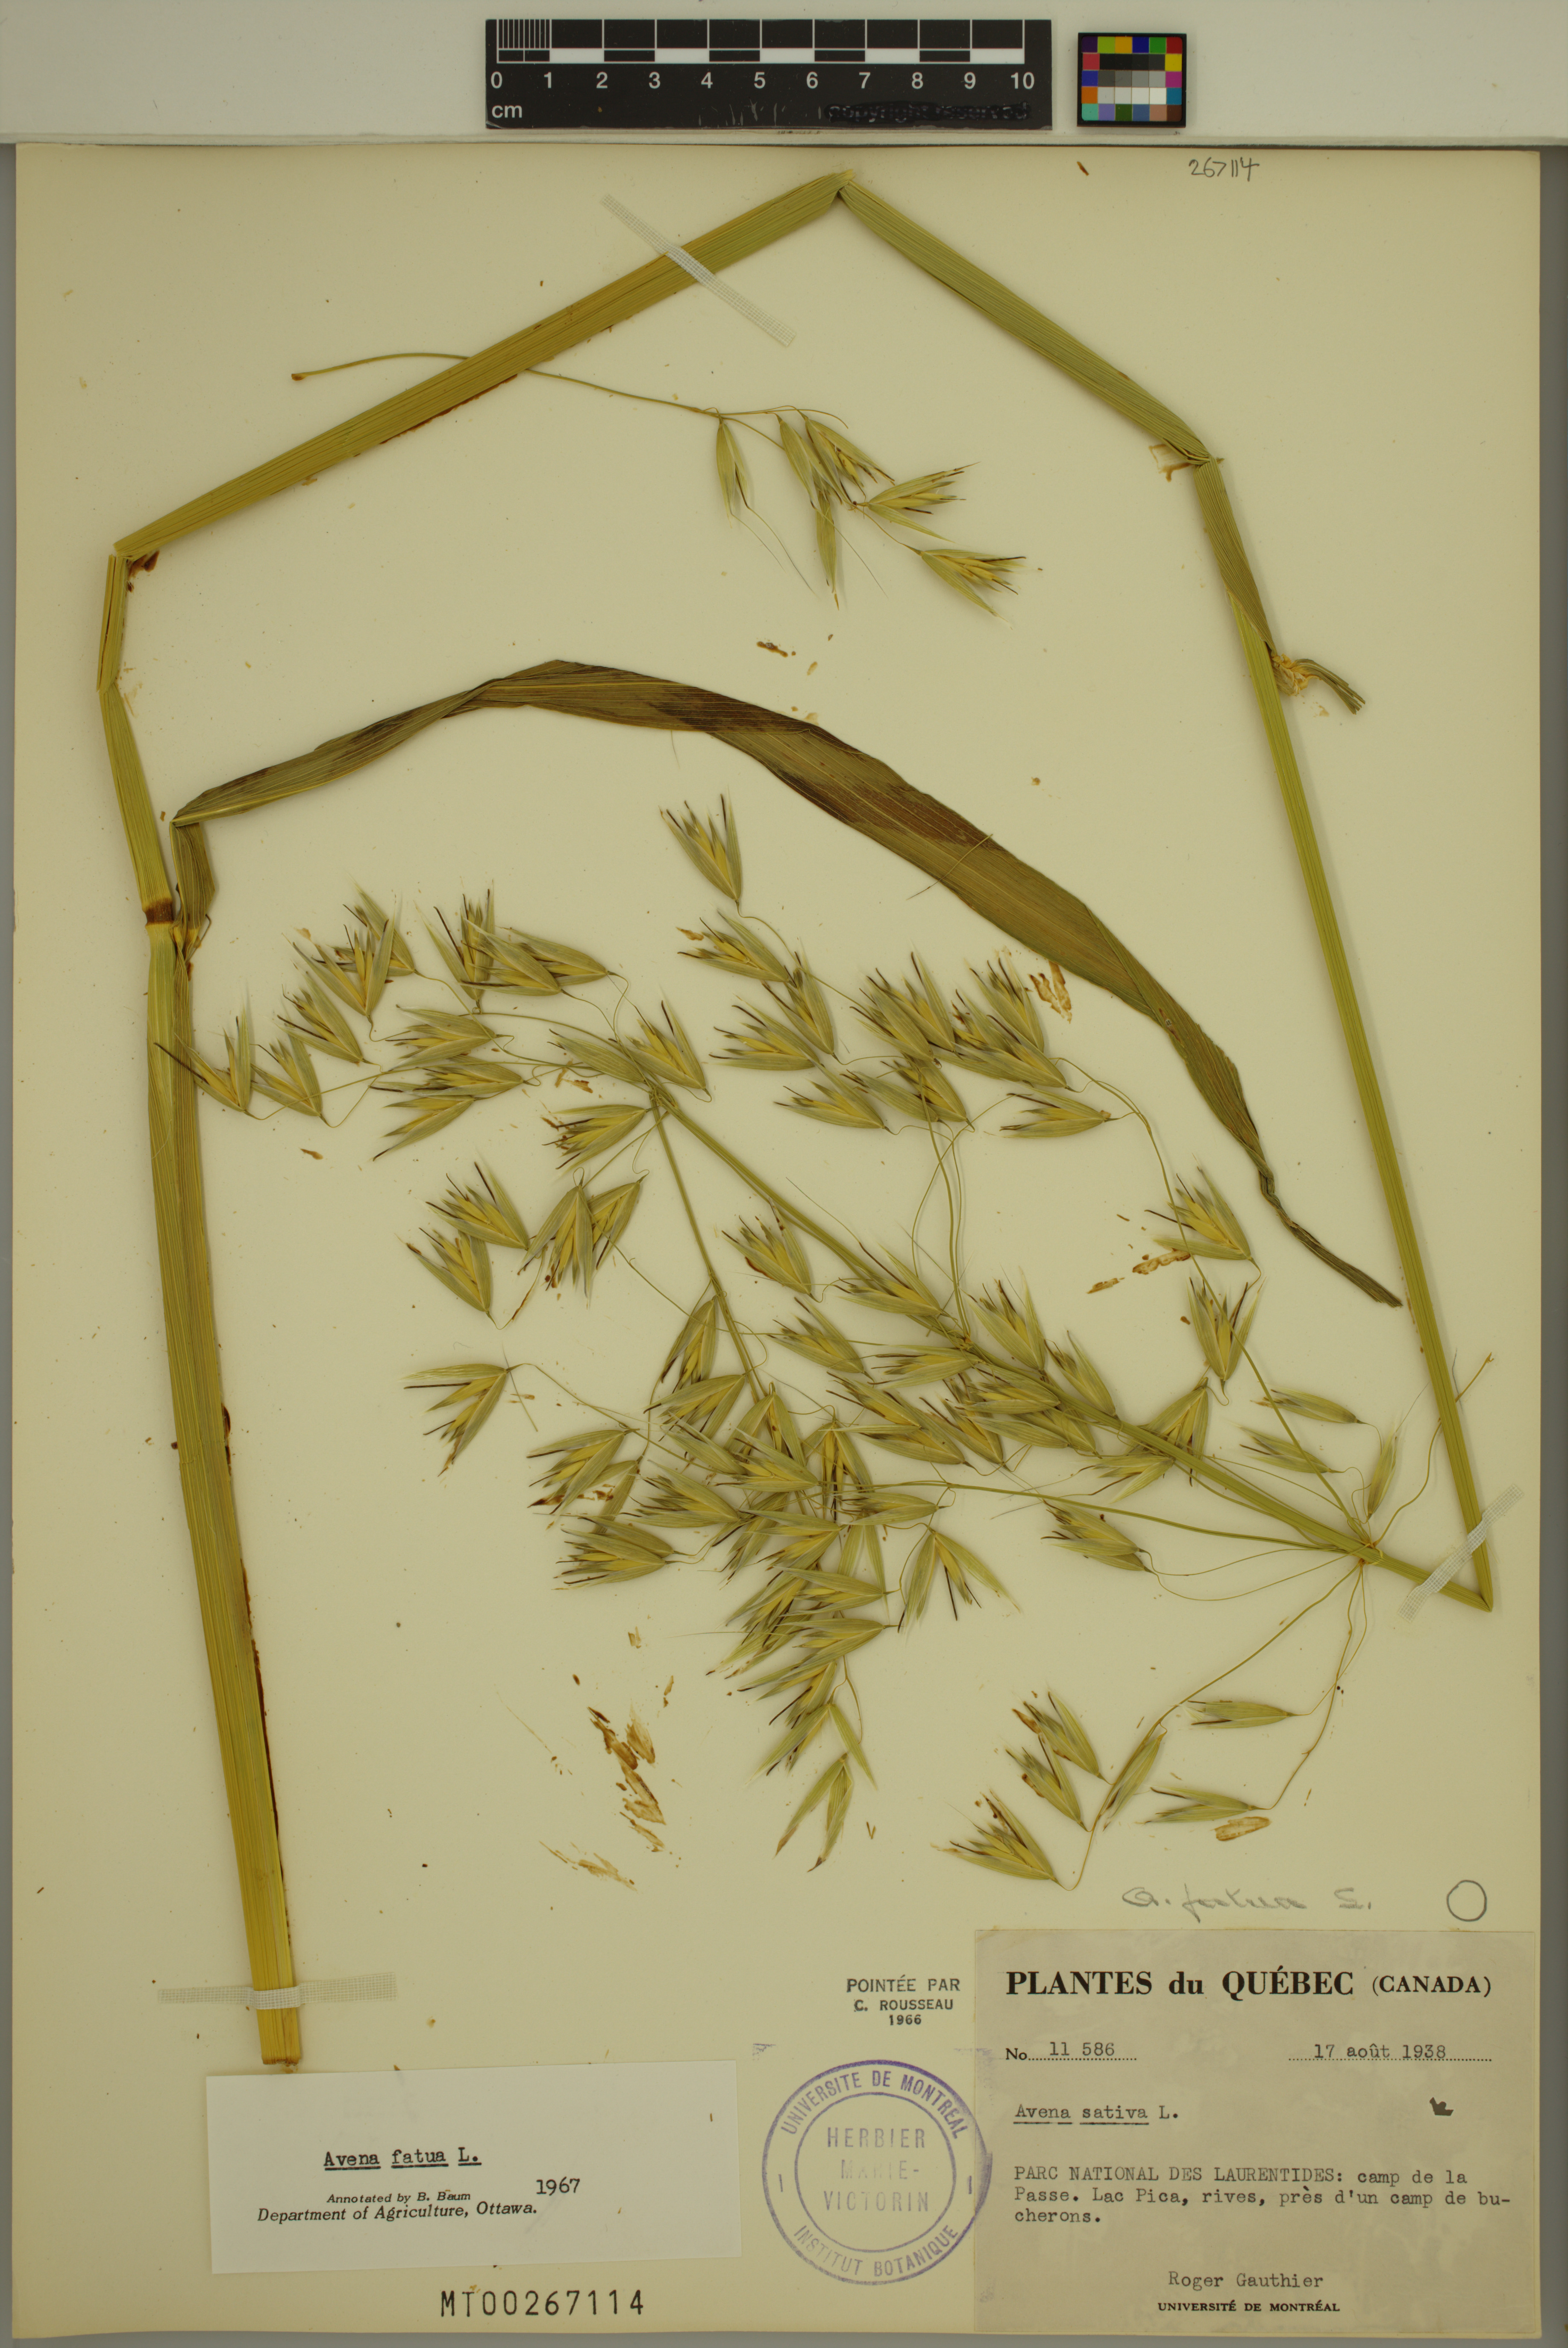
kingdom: Plantae
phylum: Tracheophyta
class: Liliopsida
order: Poales
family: Poaceae
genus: Avena
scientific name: Avena fatua
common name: Wild oat
